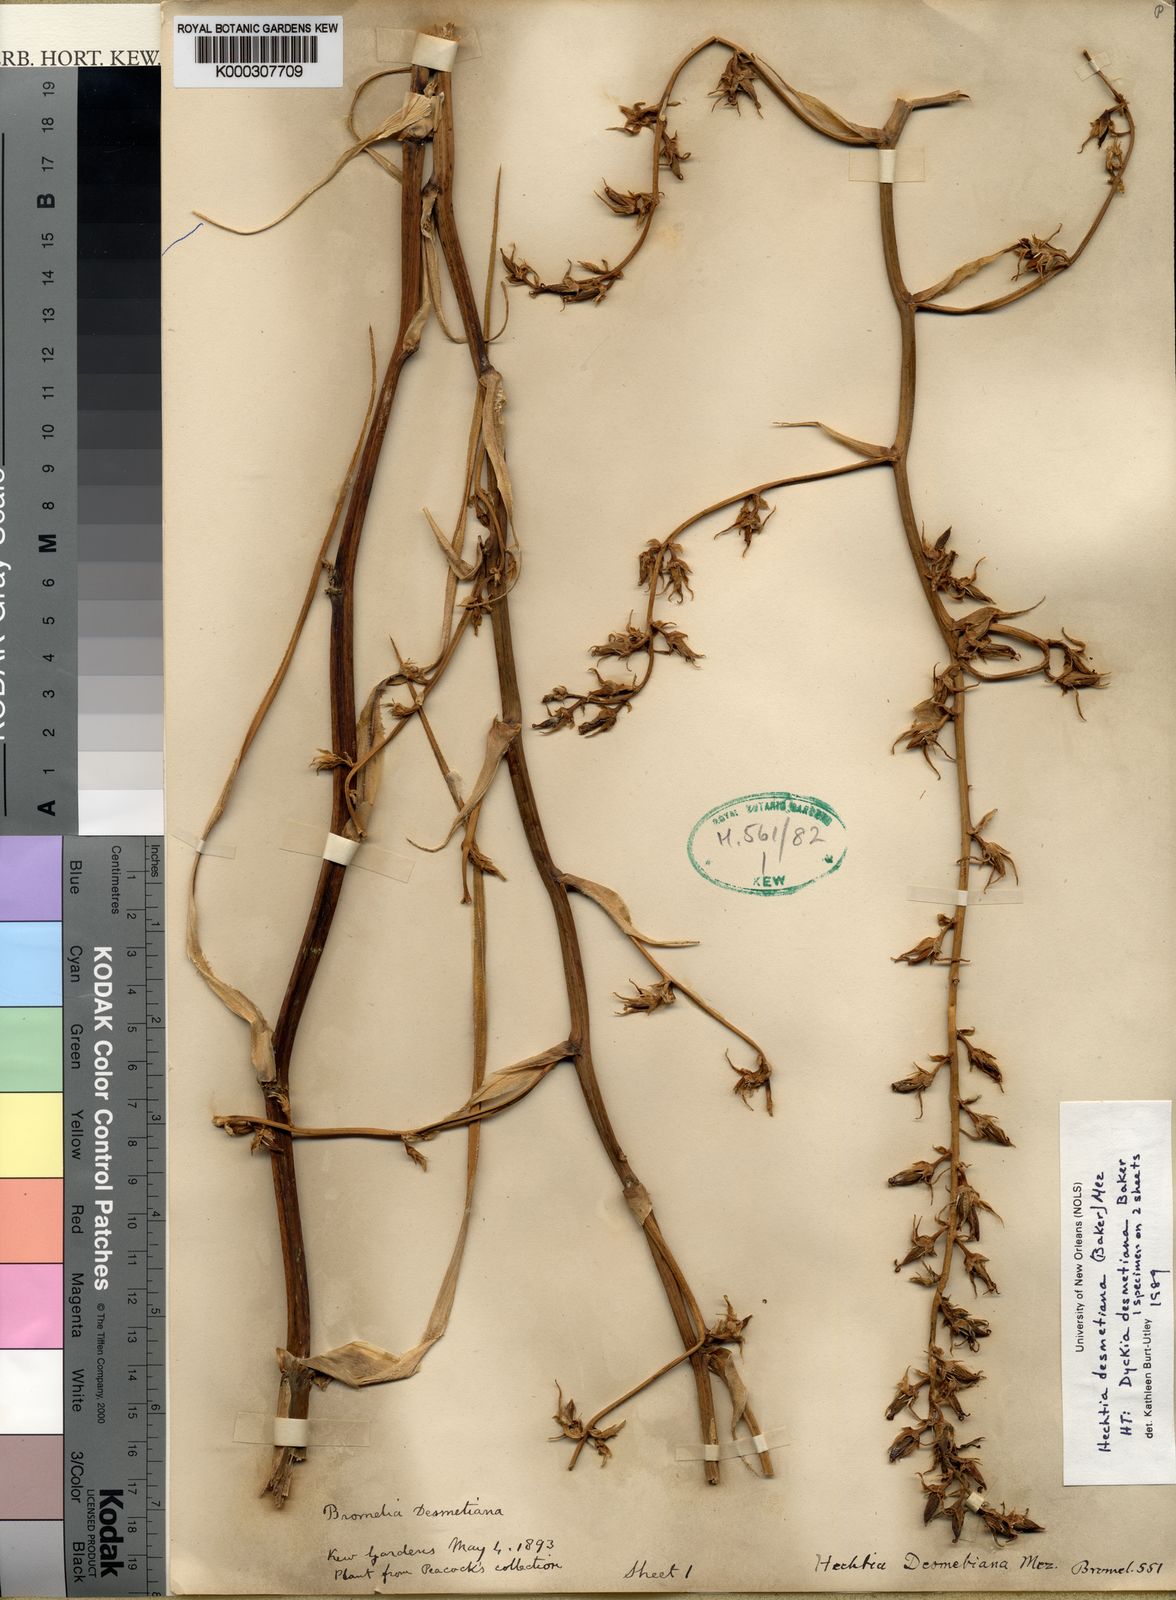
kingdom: Plantae
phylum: Tracheophyta
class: Liliopsida
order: Poales
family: Bromeliaceae
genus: Hechtia
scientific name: Hechtia rosea
